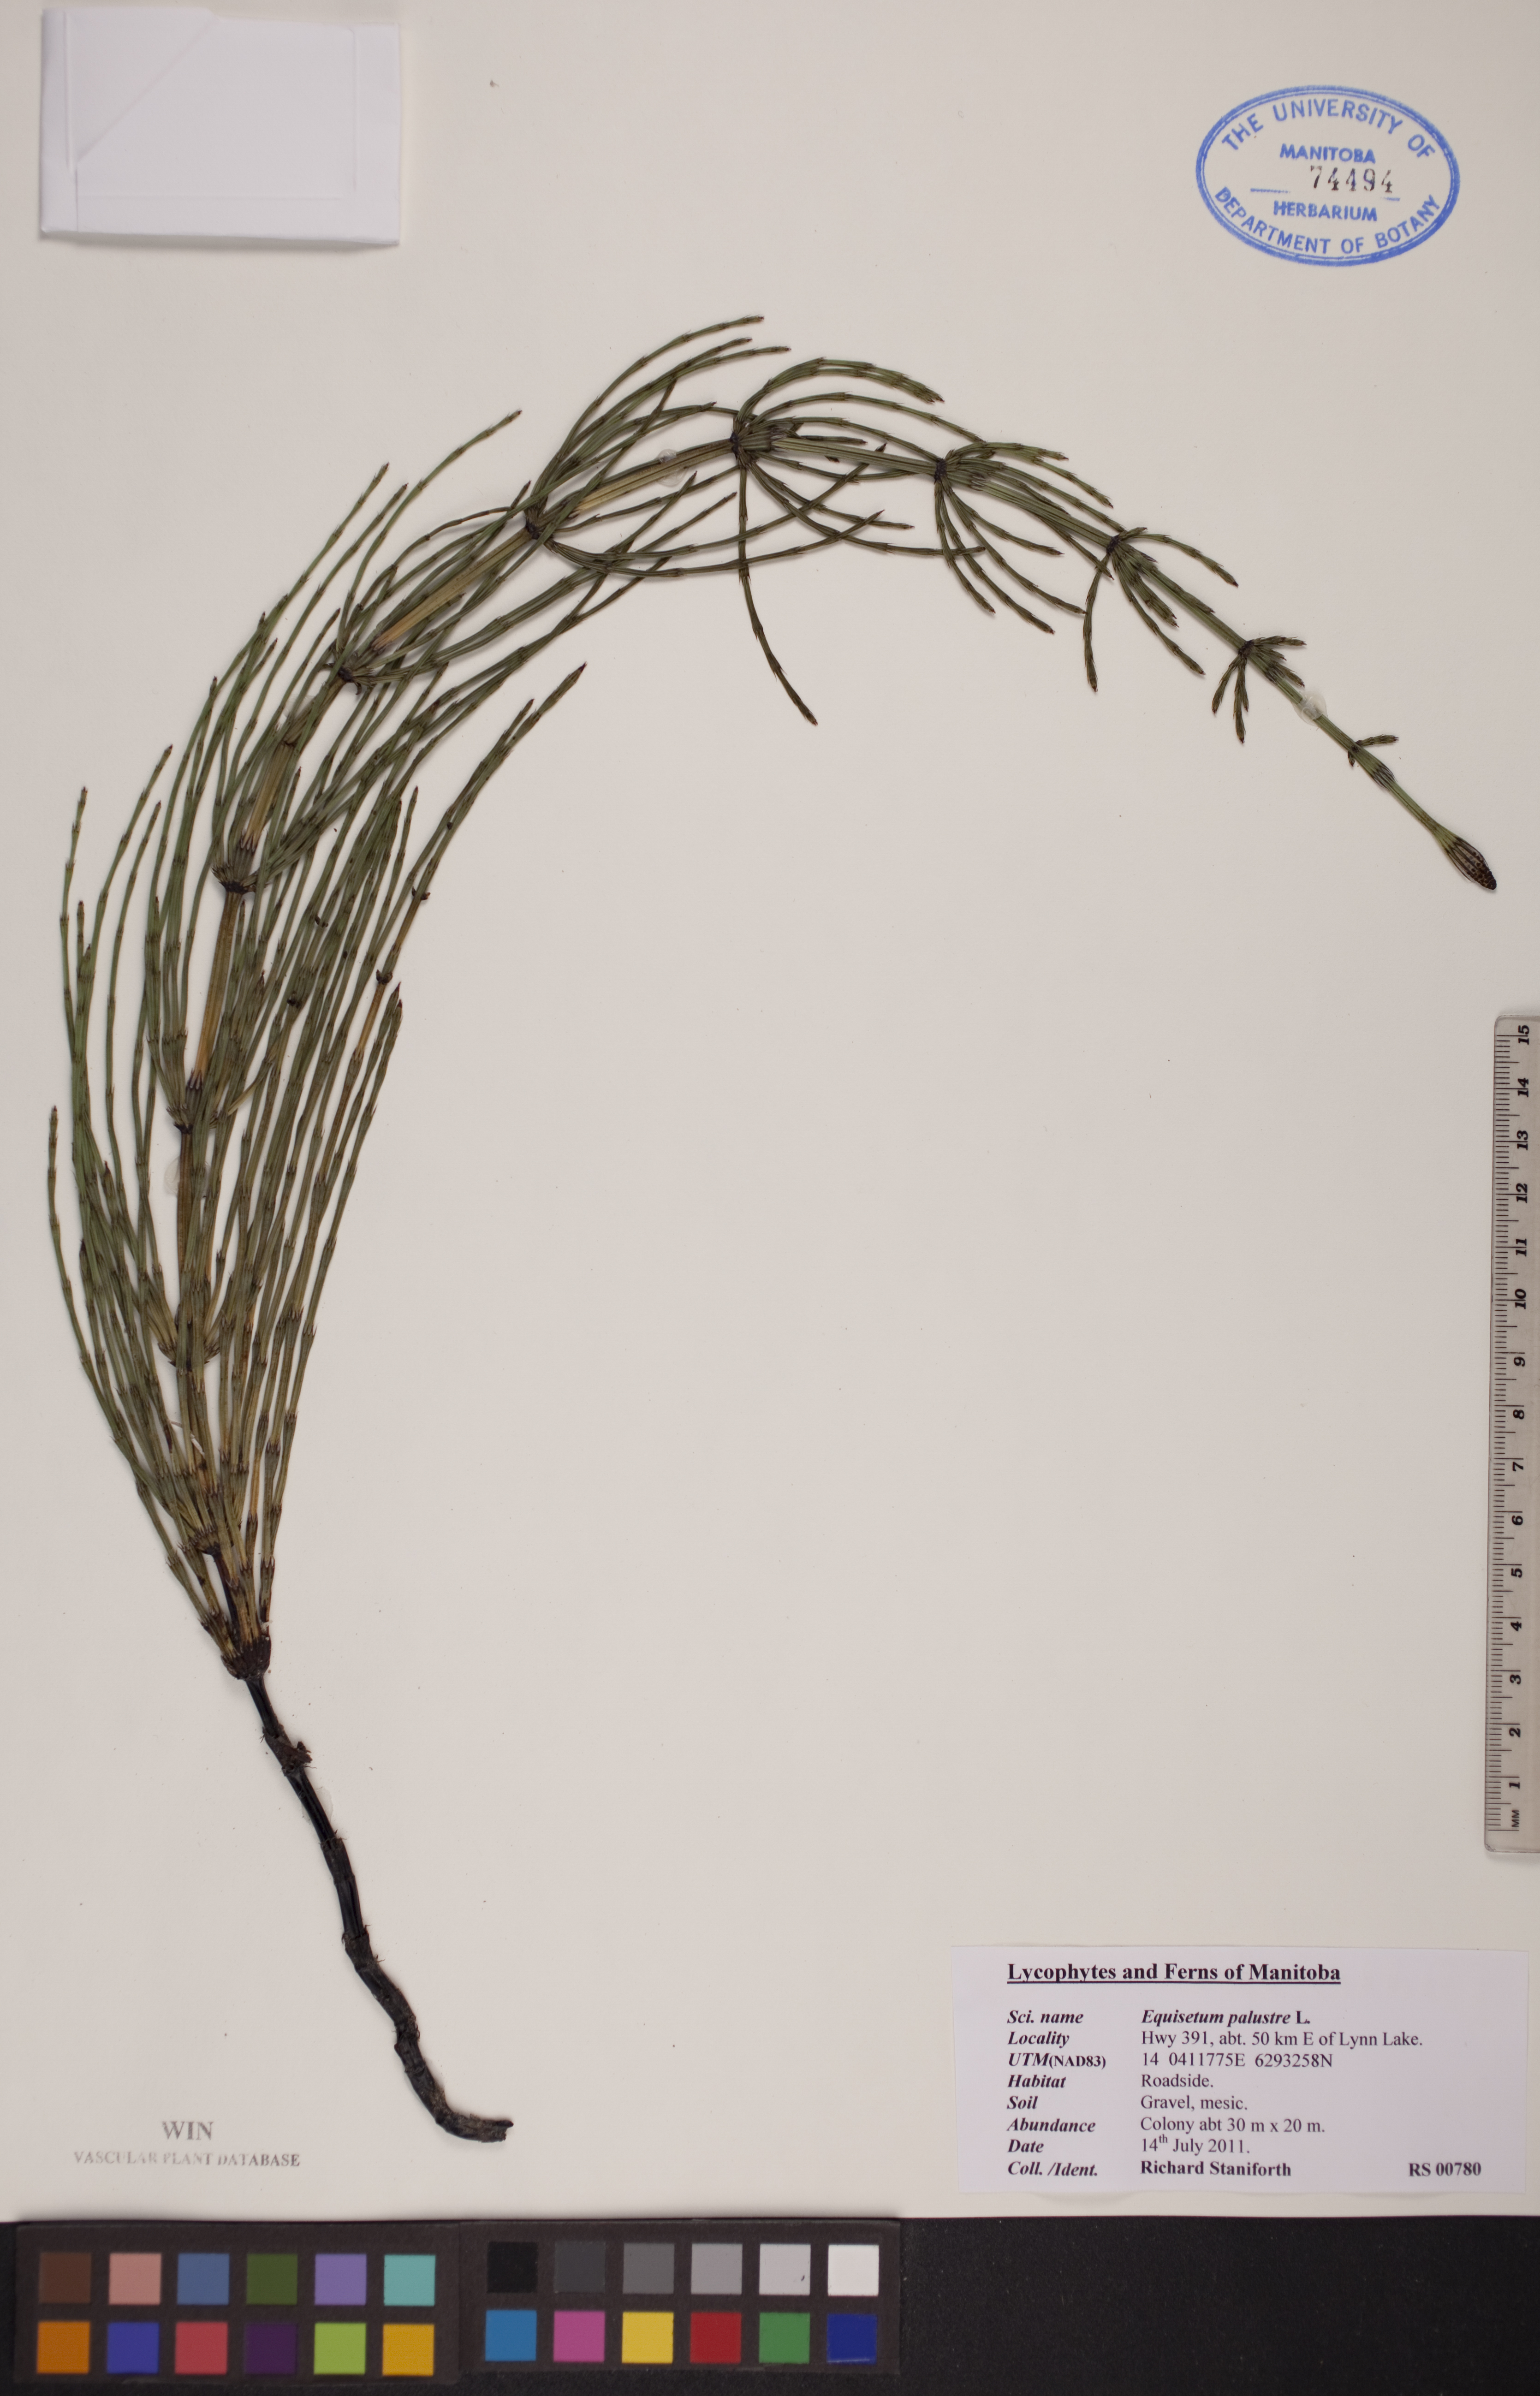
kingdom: Plantae
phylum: Tracheophyta
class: Polypodiopsida
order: Equisetales
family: Equisetaceae
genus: Equisetum
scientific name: Equisetum palustre
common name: Marsh horsetail
